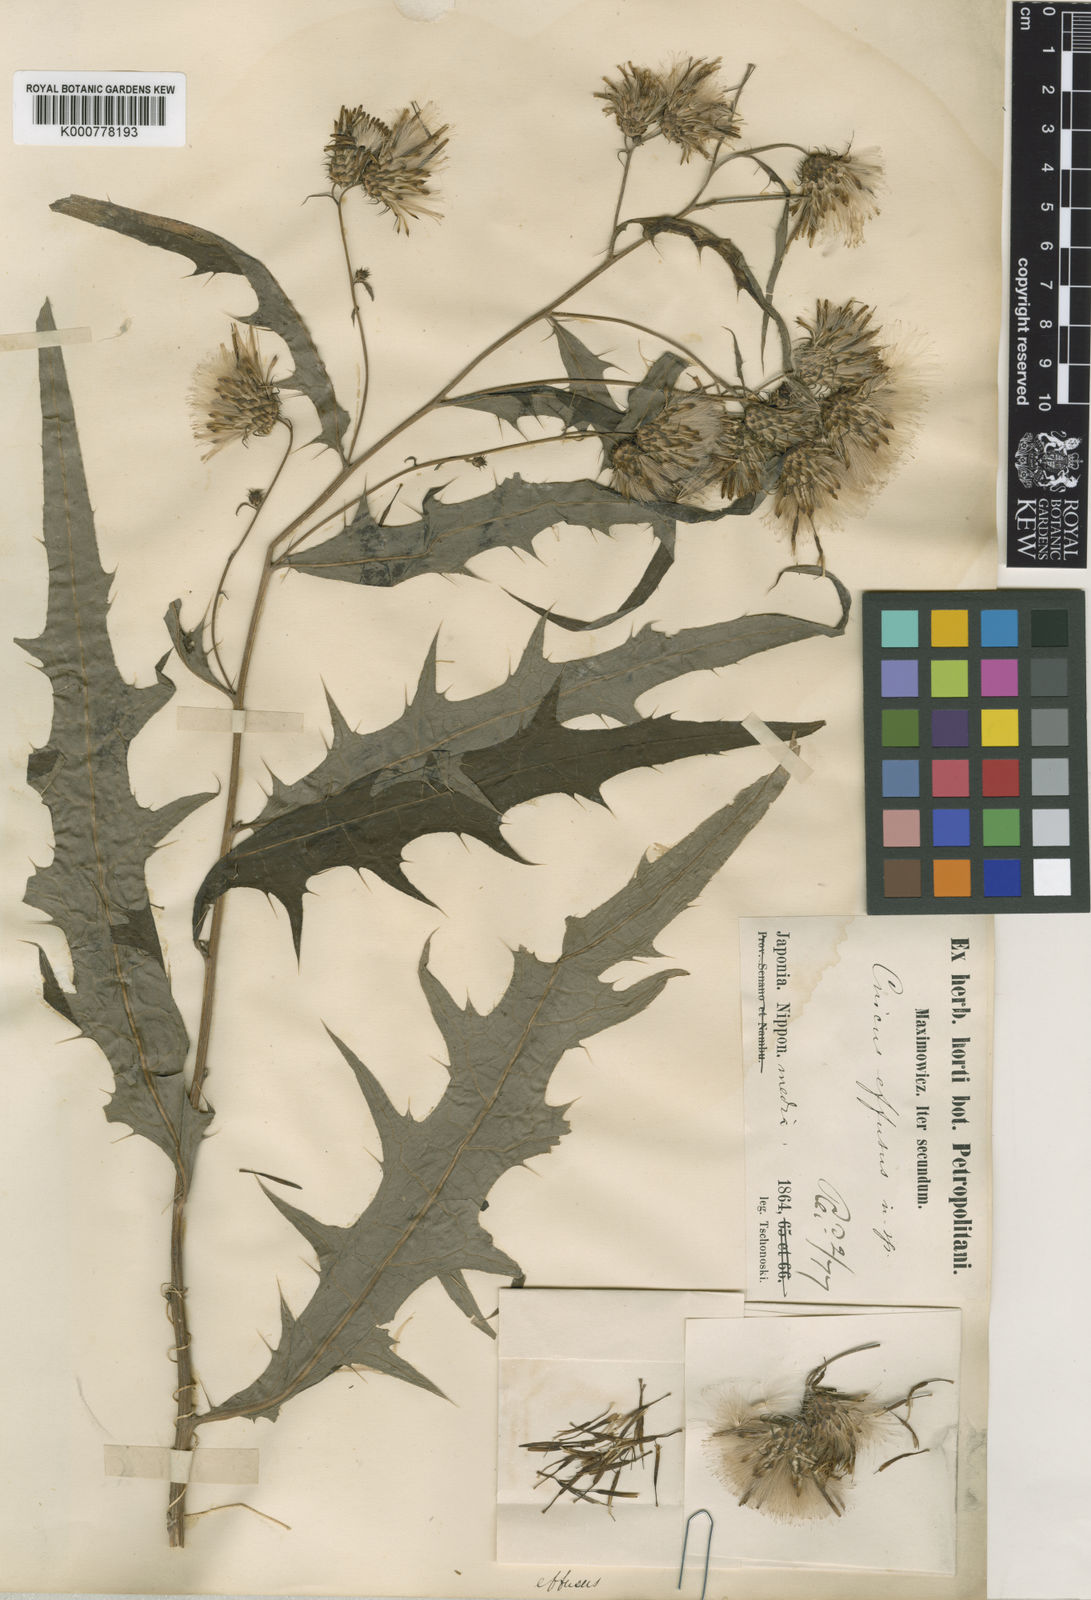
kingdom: Plantae
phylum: Tracheophyta
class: Magnoliopsida
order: Asterales
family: Asteraceae
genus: Cirsium
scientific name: Cirsium pulchellum
